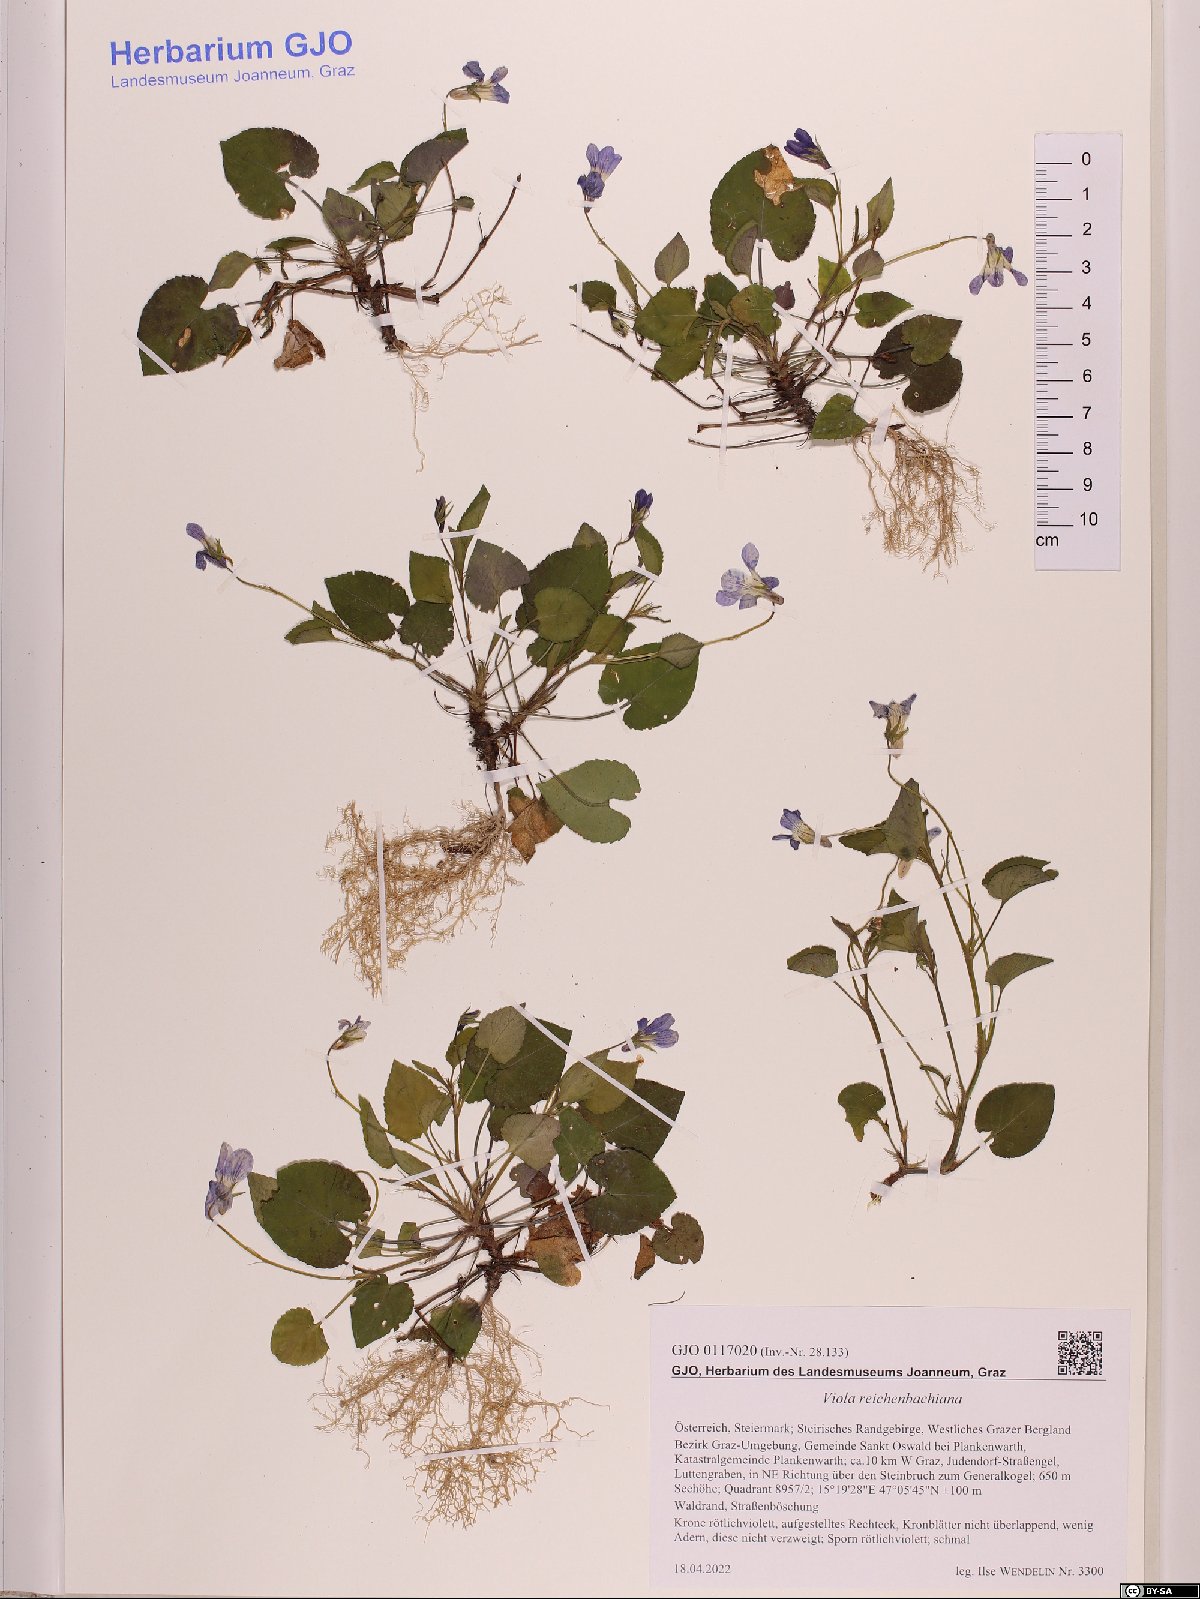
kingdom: Plantae
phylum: Tracheophyta
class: Magnoliopsida
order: Malpighiales
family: Violaceae
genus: Viola
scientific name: Viola reichenbachiana
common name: Early dog-violet
